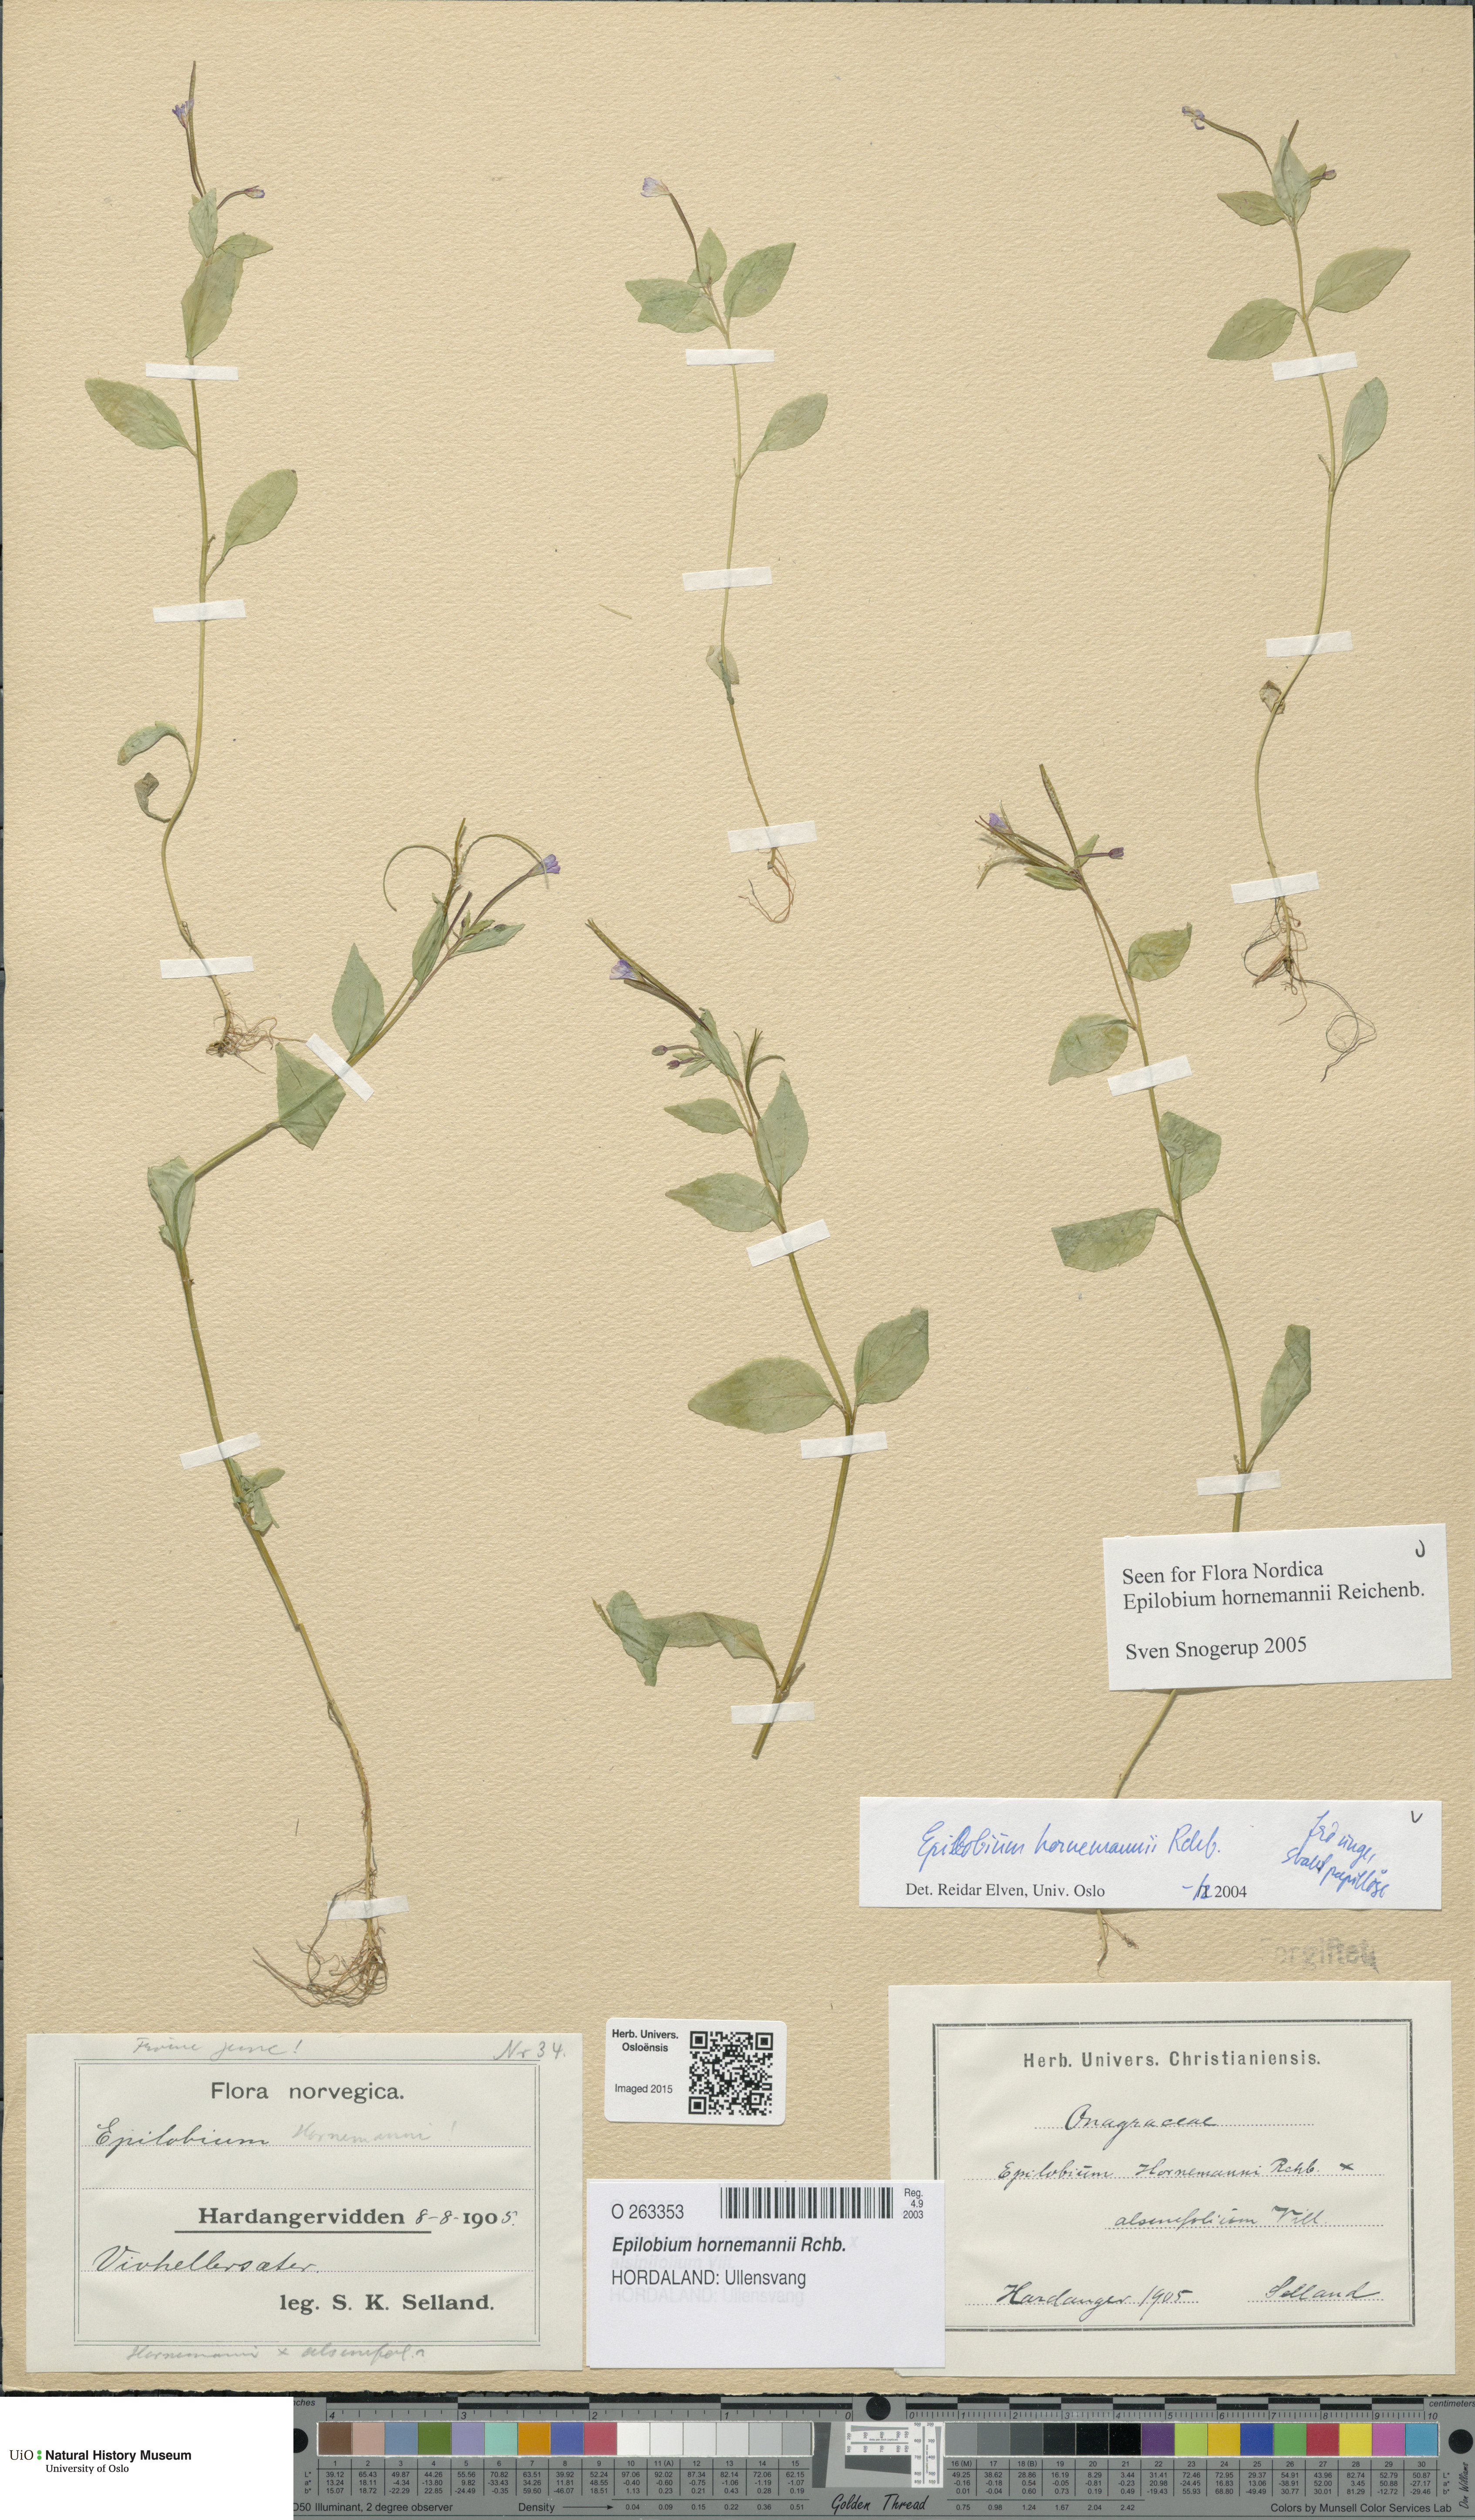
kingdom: Plantae
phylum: Tracheophyta
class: Magnoliopsida
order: Myrtales
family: Onagraceae
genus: Epilobium
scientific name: Epilobium hornemannii
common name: Hornemann's willowherb
